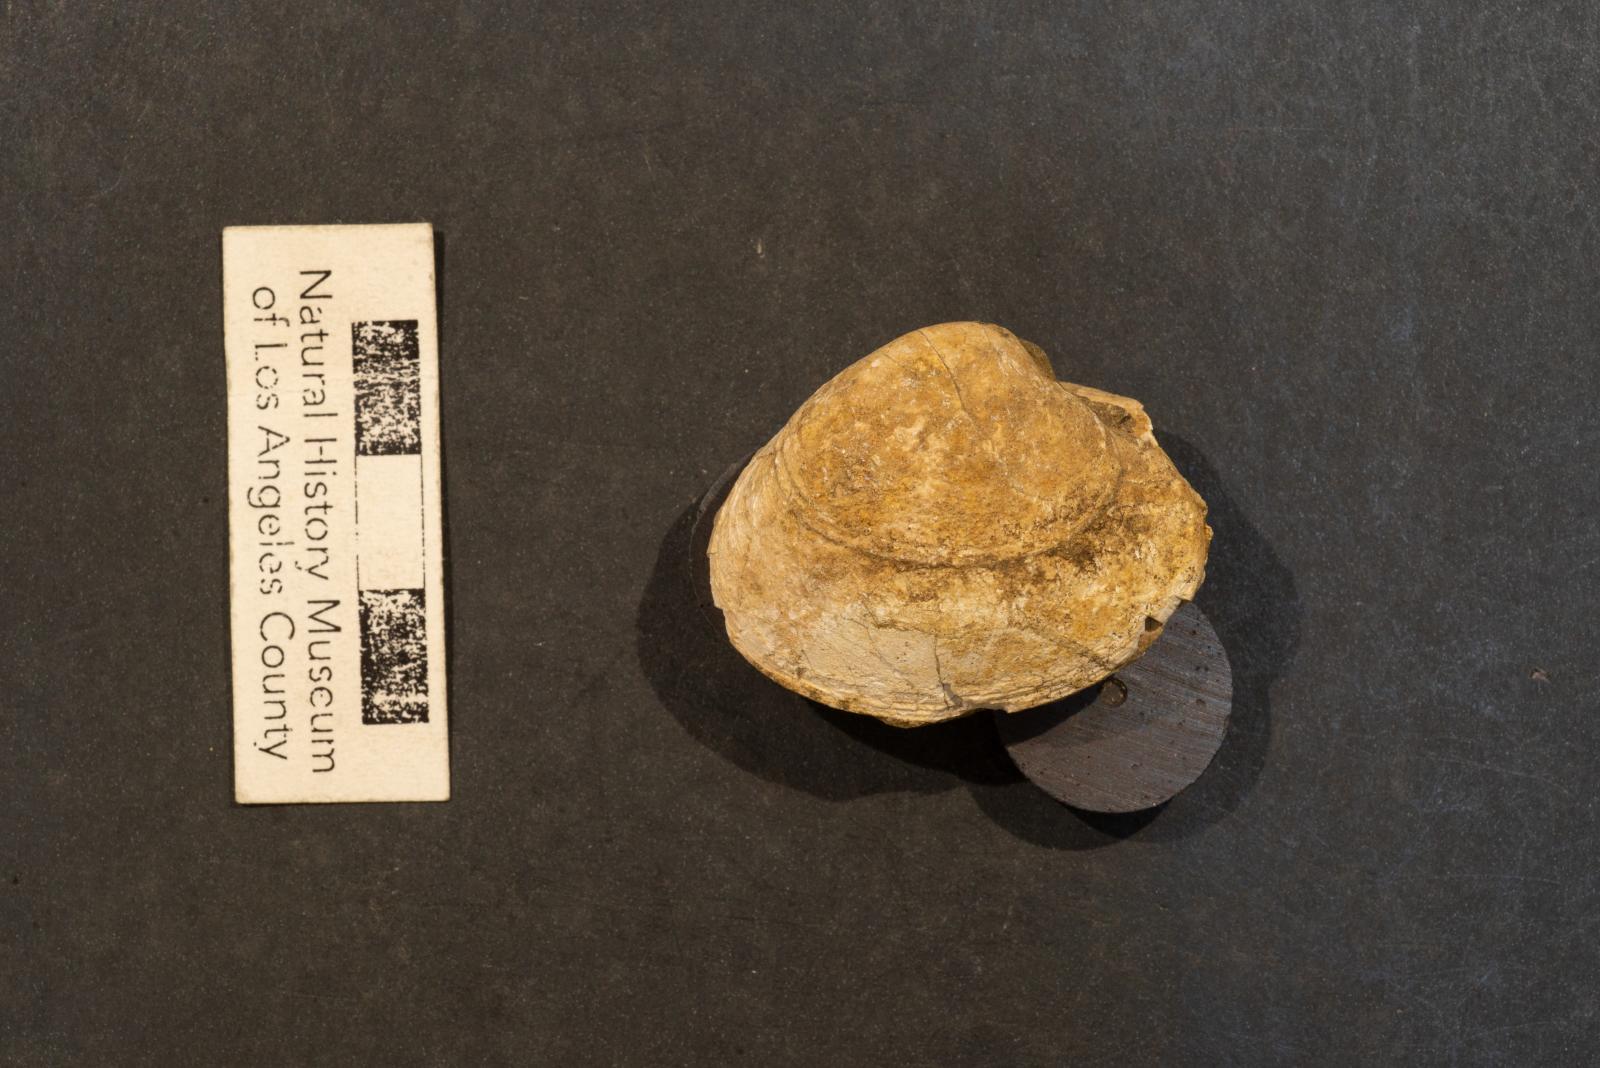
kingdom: Animalia
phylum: Mollusca
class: Bivalvia
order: Venerida
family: Veneridae
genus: Paraesa
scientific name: Paraesa Meretrix lens
